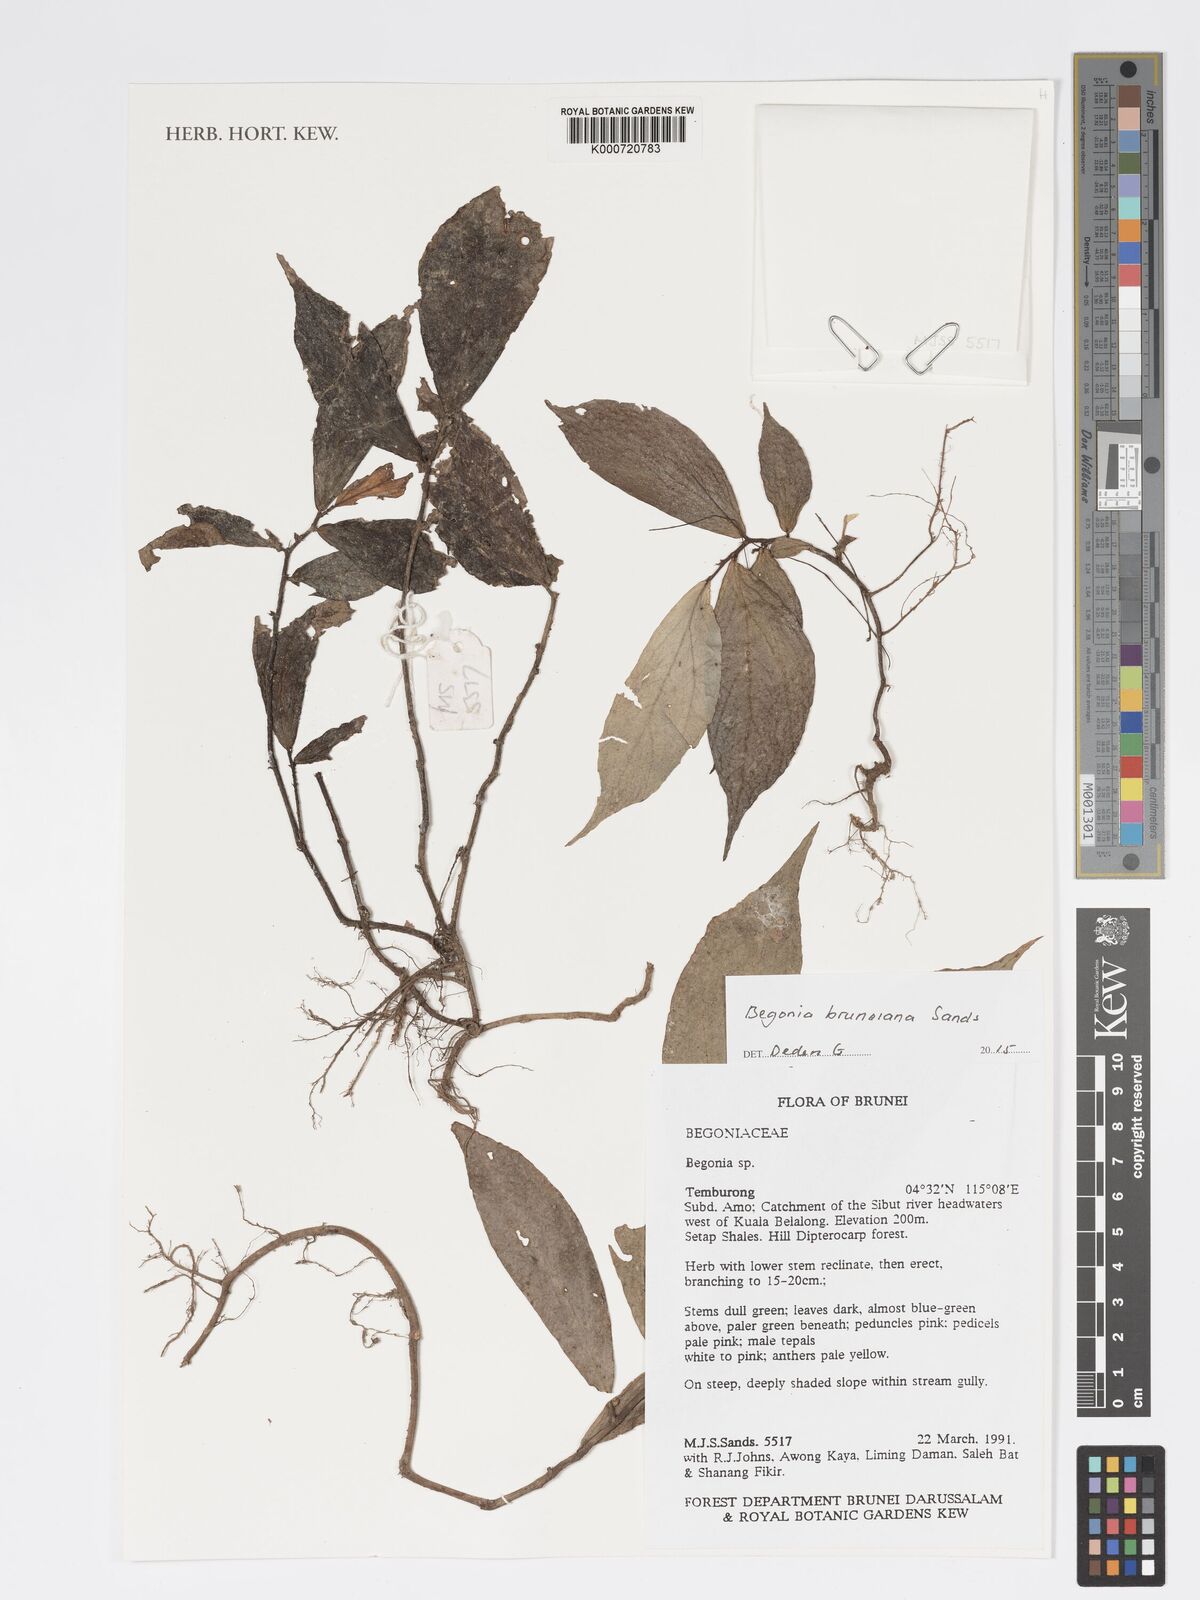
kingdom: Plantae
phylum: Tracheophyta
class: Magnoliopsida
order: Cucurbitales
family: Begoniaceae
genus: Begonia
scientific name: Begonia bruneiana
